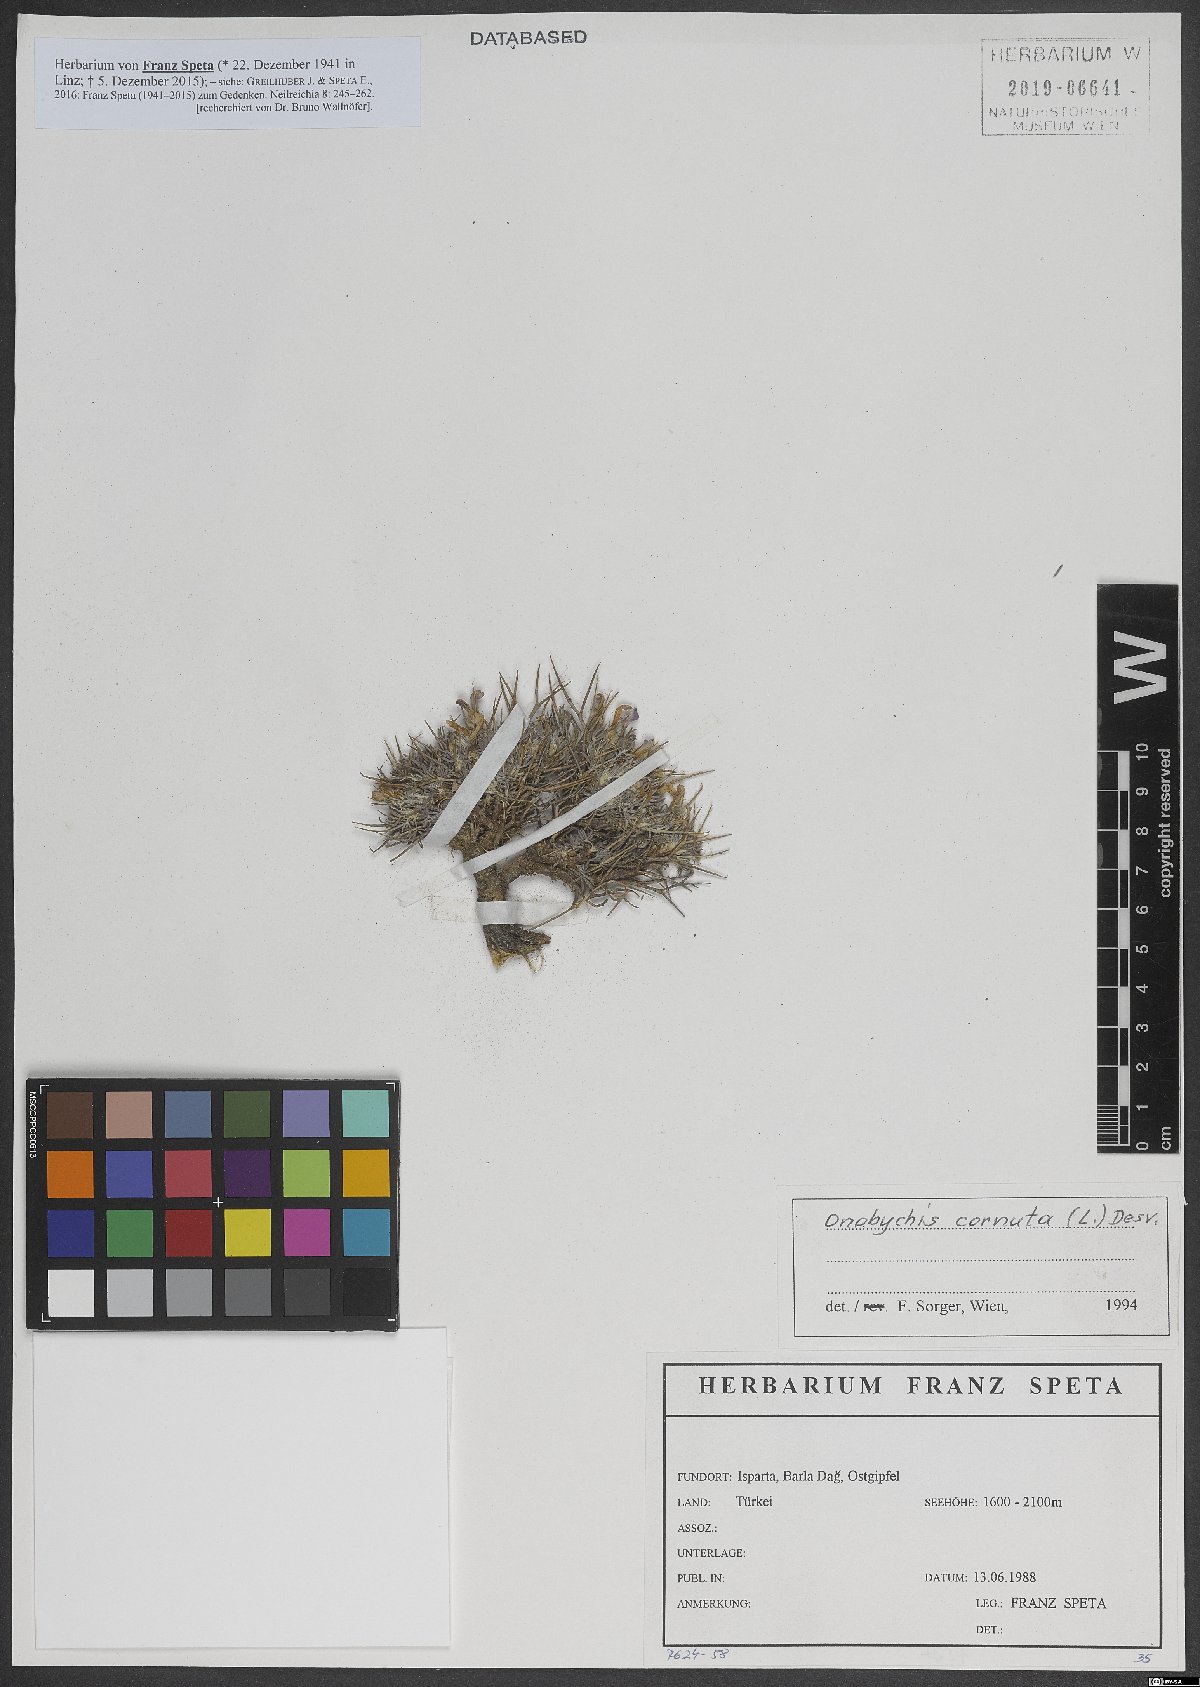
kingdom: Plantae
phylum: Tracheophyta
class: Magnoliopsida
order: Fabales
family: Fabaceae
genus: Onobrychis
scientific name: Onobrychis cornuta
